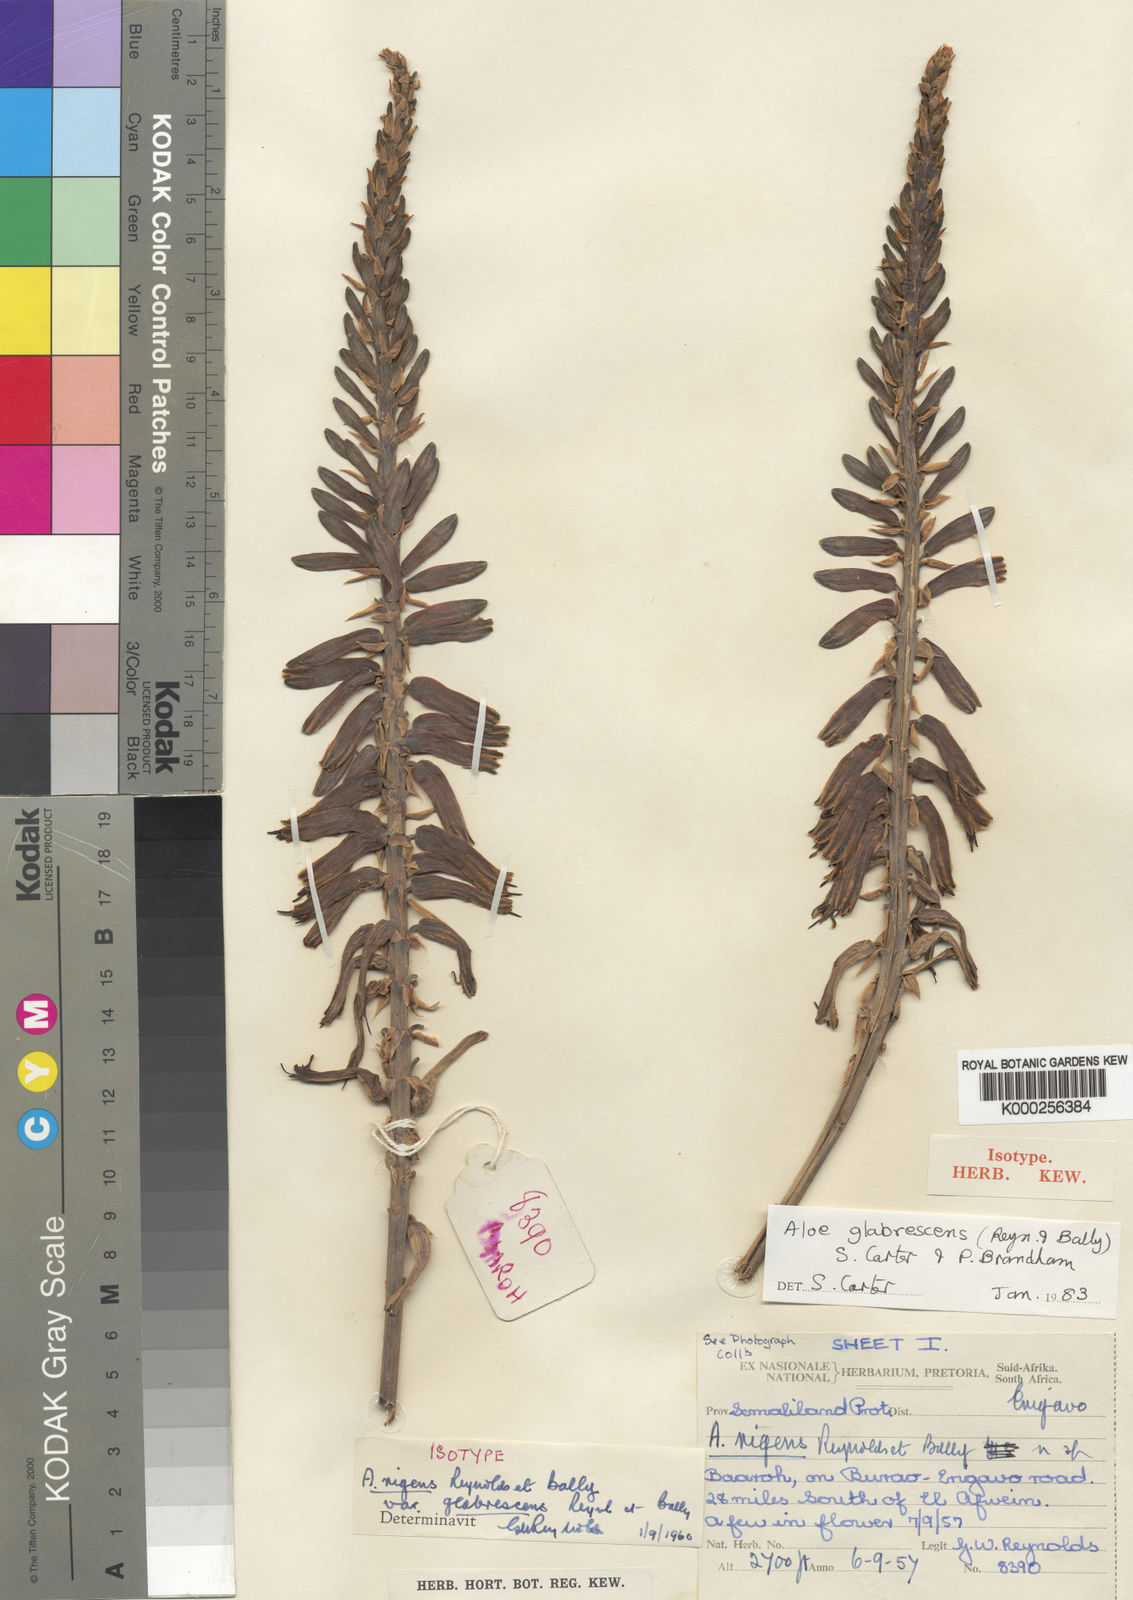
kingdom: Plantae
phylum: Tracheophyta
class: Liliopsida
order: Asparagales
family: Asphodelaceae
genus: Aloe
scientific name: Aloe glabrescens
